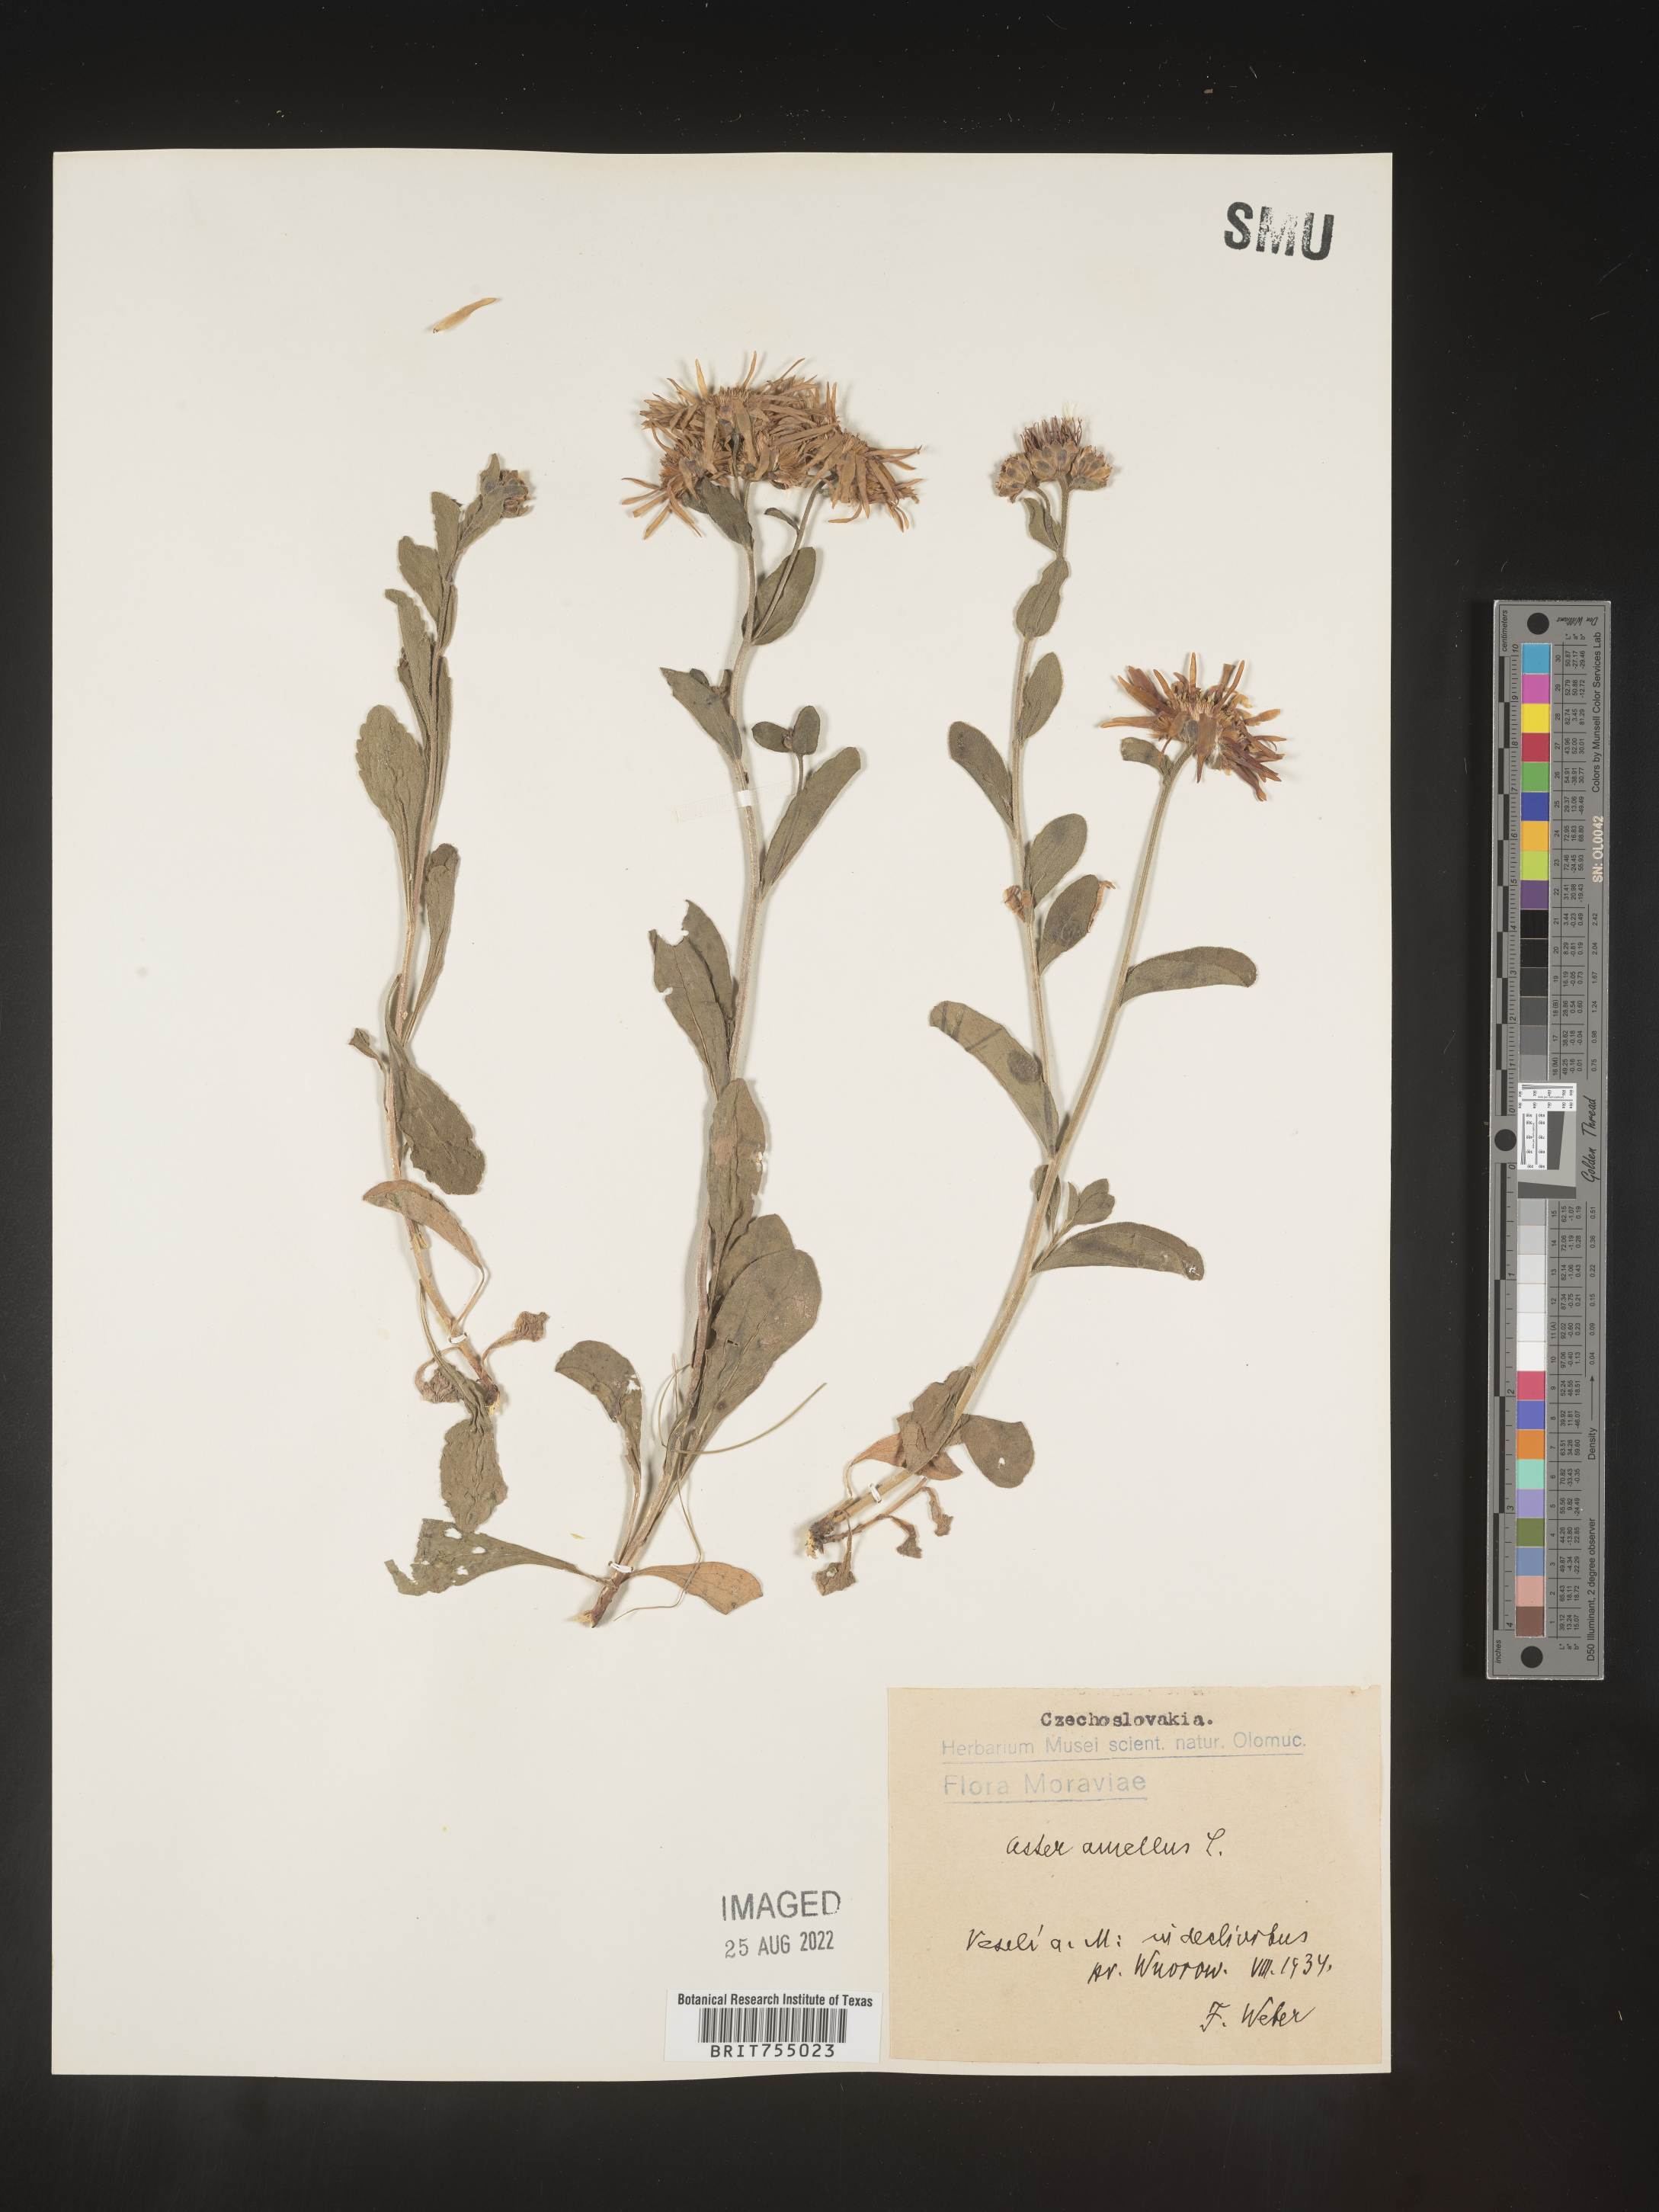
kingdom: Plantae
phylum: Tracheophyta
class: Magnoliopsida
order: Asterales
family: Asteraceae
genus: Symphyotrichum
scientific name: Symphyotrichum
